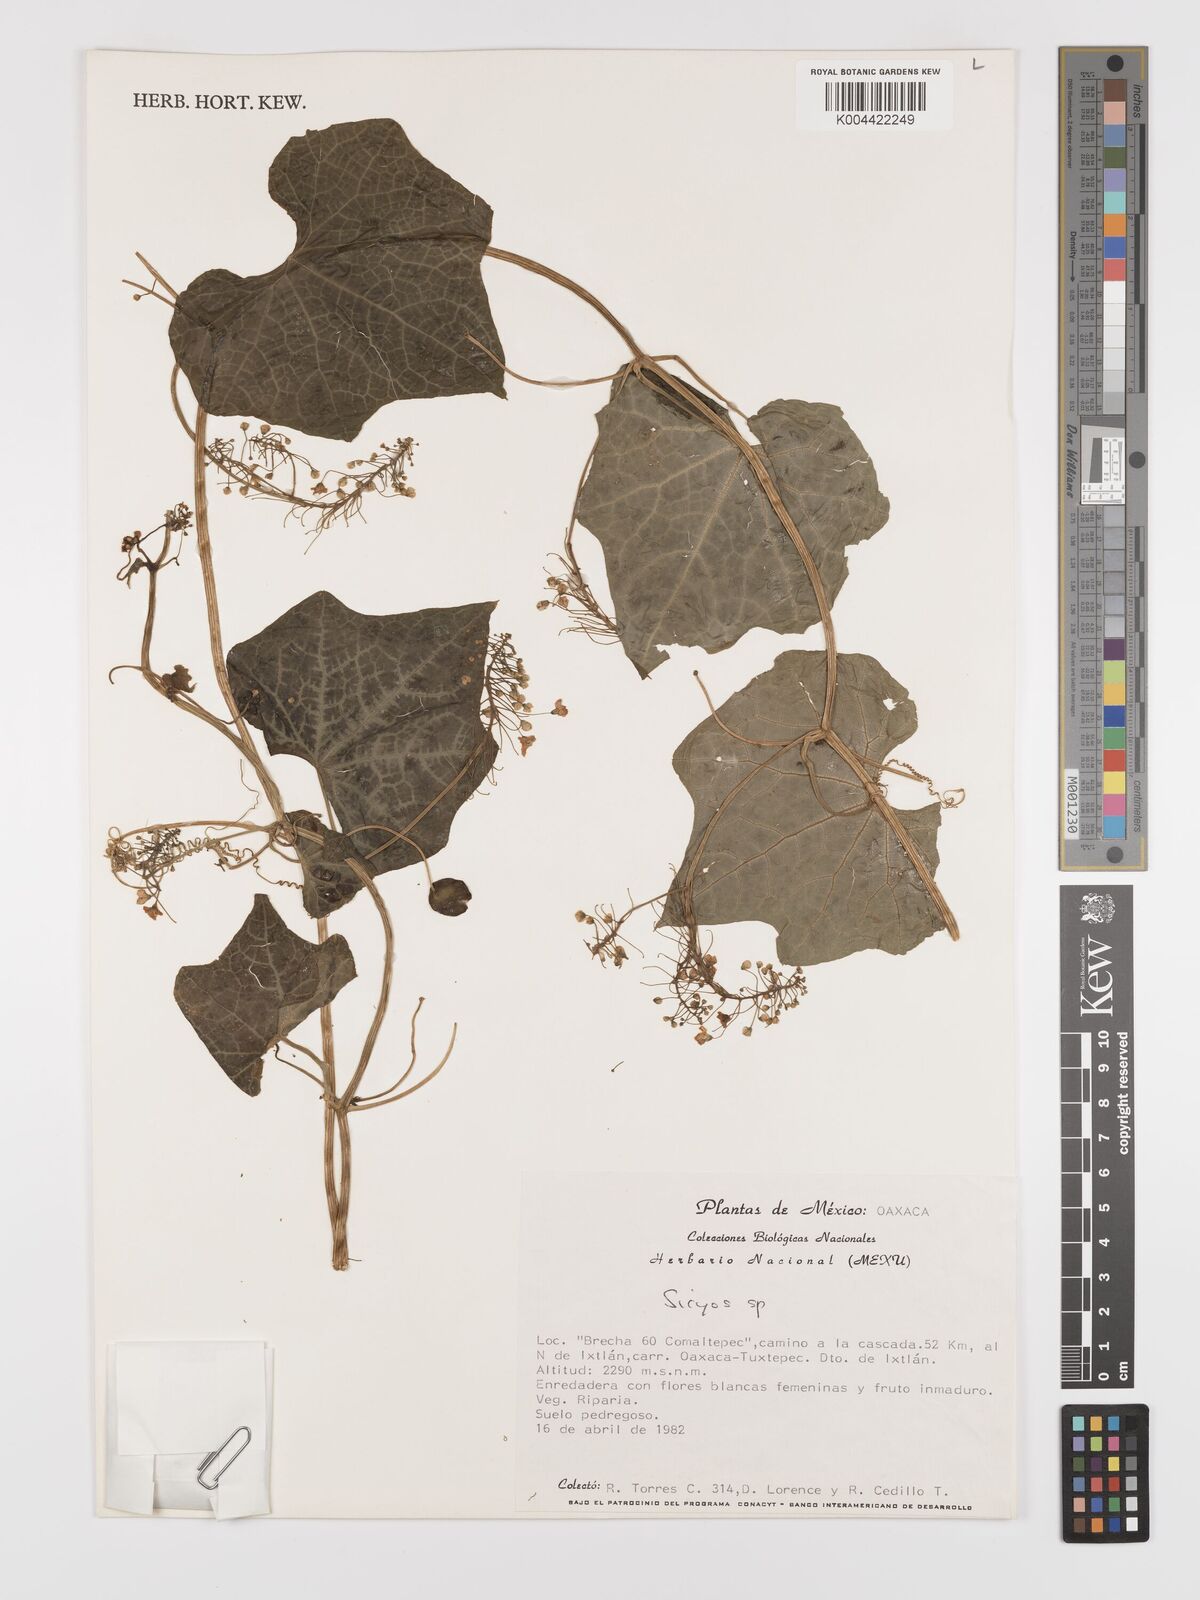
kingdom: Plantae
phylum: Tracheophyta
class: Magnoliopsida
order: Cucurbitales
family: Cucurbitaceae
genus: Parasicyos
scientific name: Parasicyos
